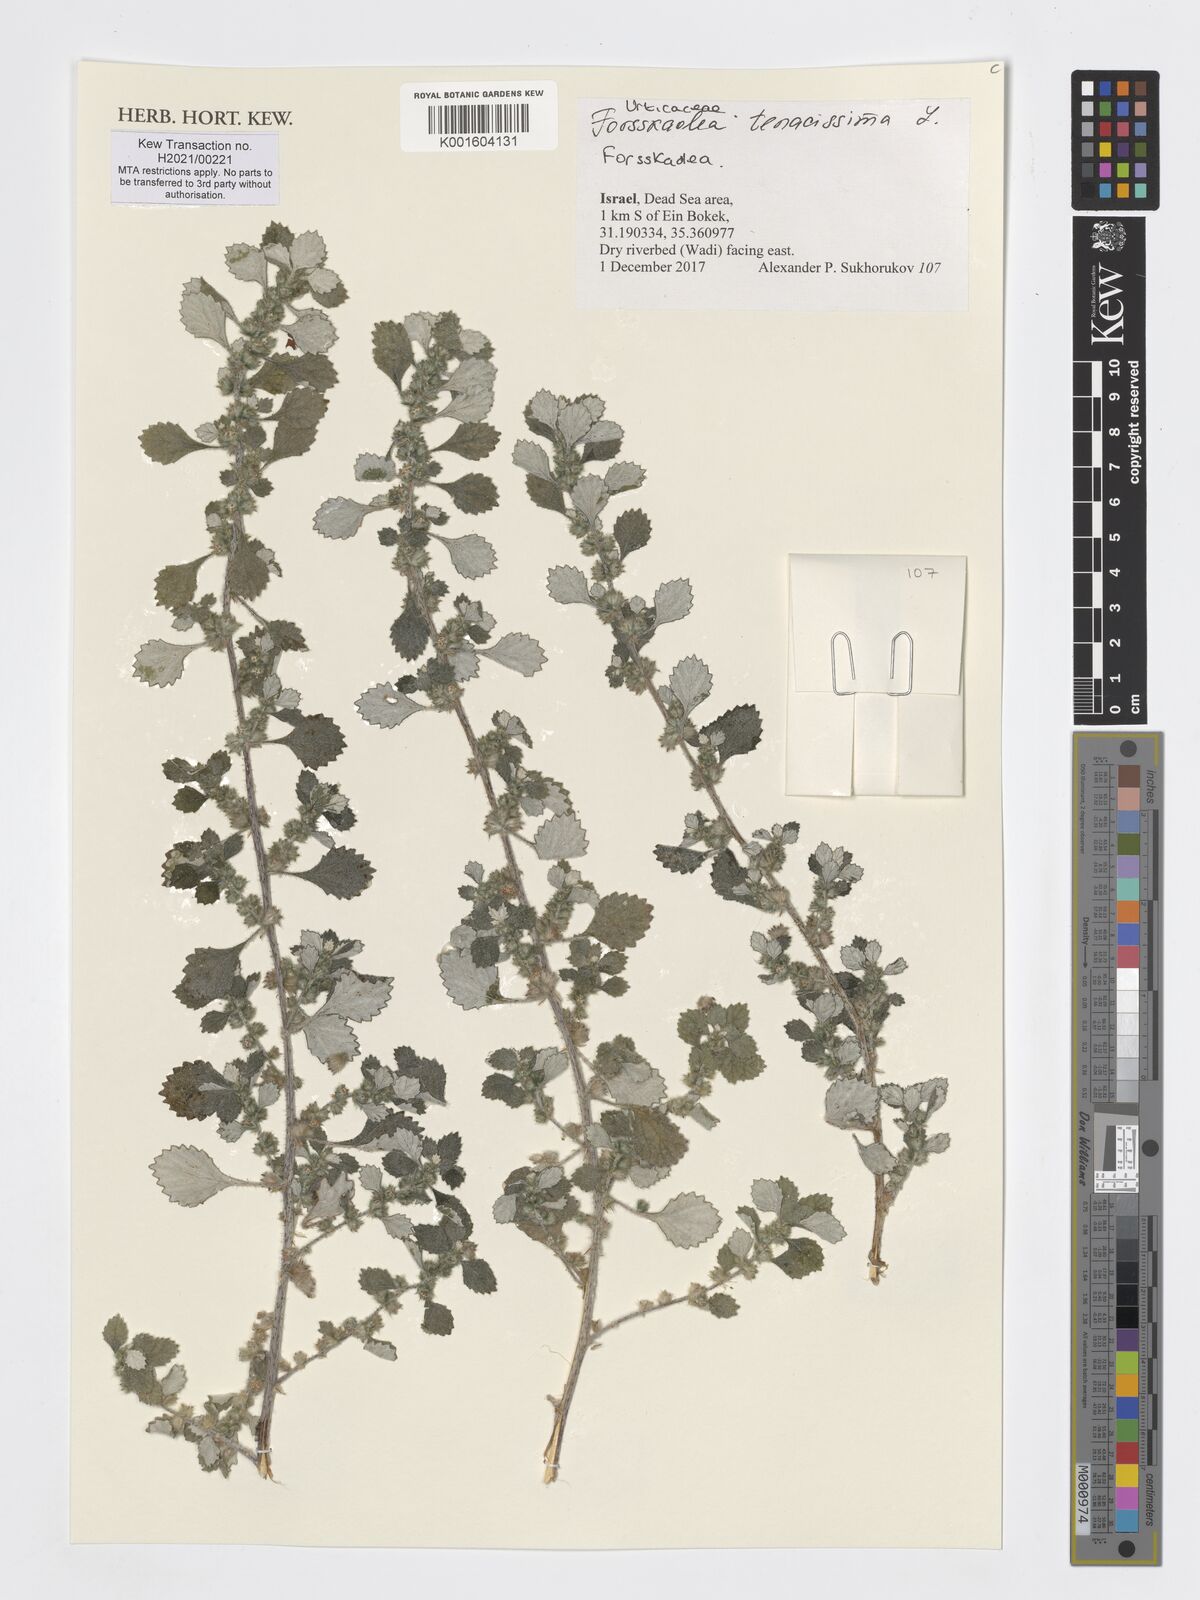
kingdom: Plantae
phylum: Tracheophyta
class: Magnoliopsida
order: Rosales
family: Urticaceae
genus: Forsskaolea
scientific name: Forsskaolea tenacissima
